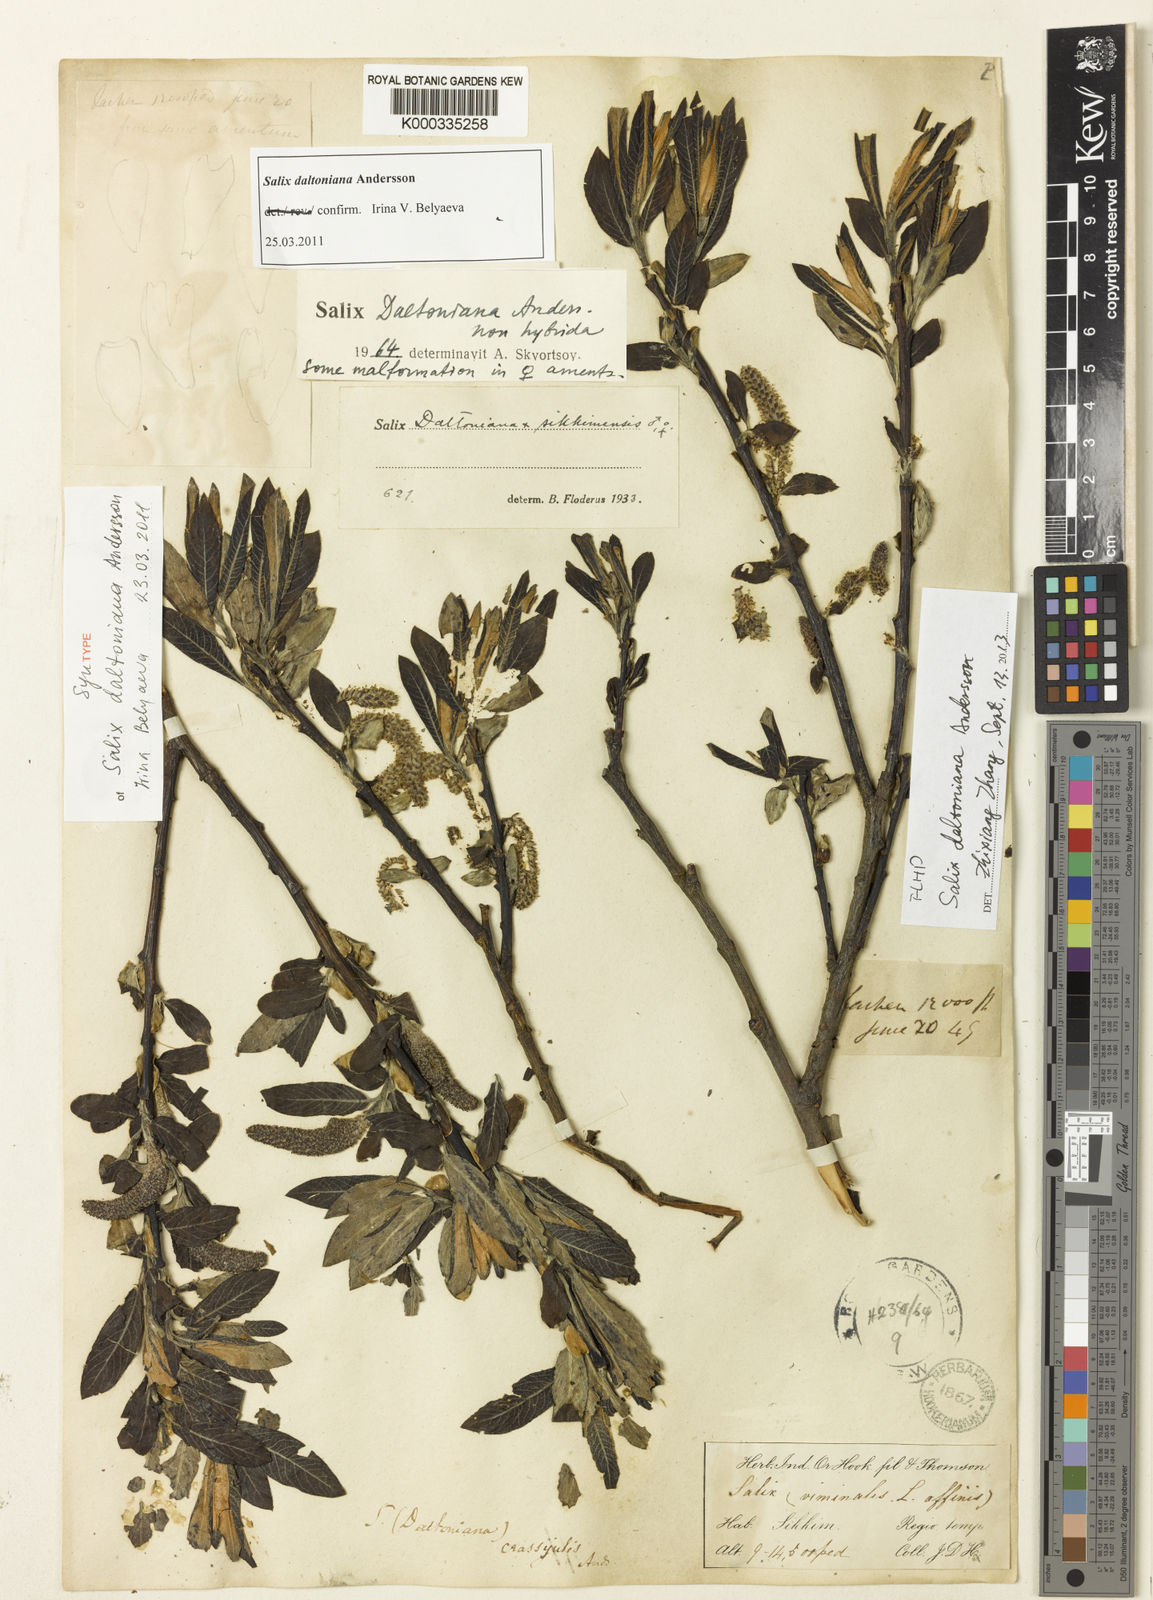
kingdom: Plantae
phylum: Tracheophyta
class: Magnoliopsida
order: Malpighiales
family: Salicaceae
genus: Salix
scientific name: Salix daltoniana
